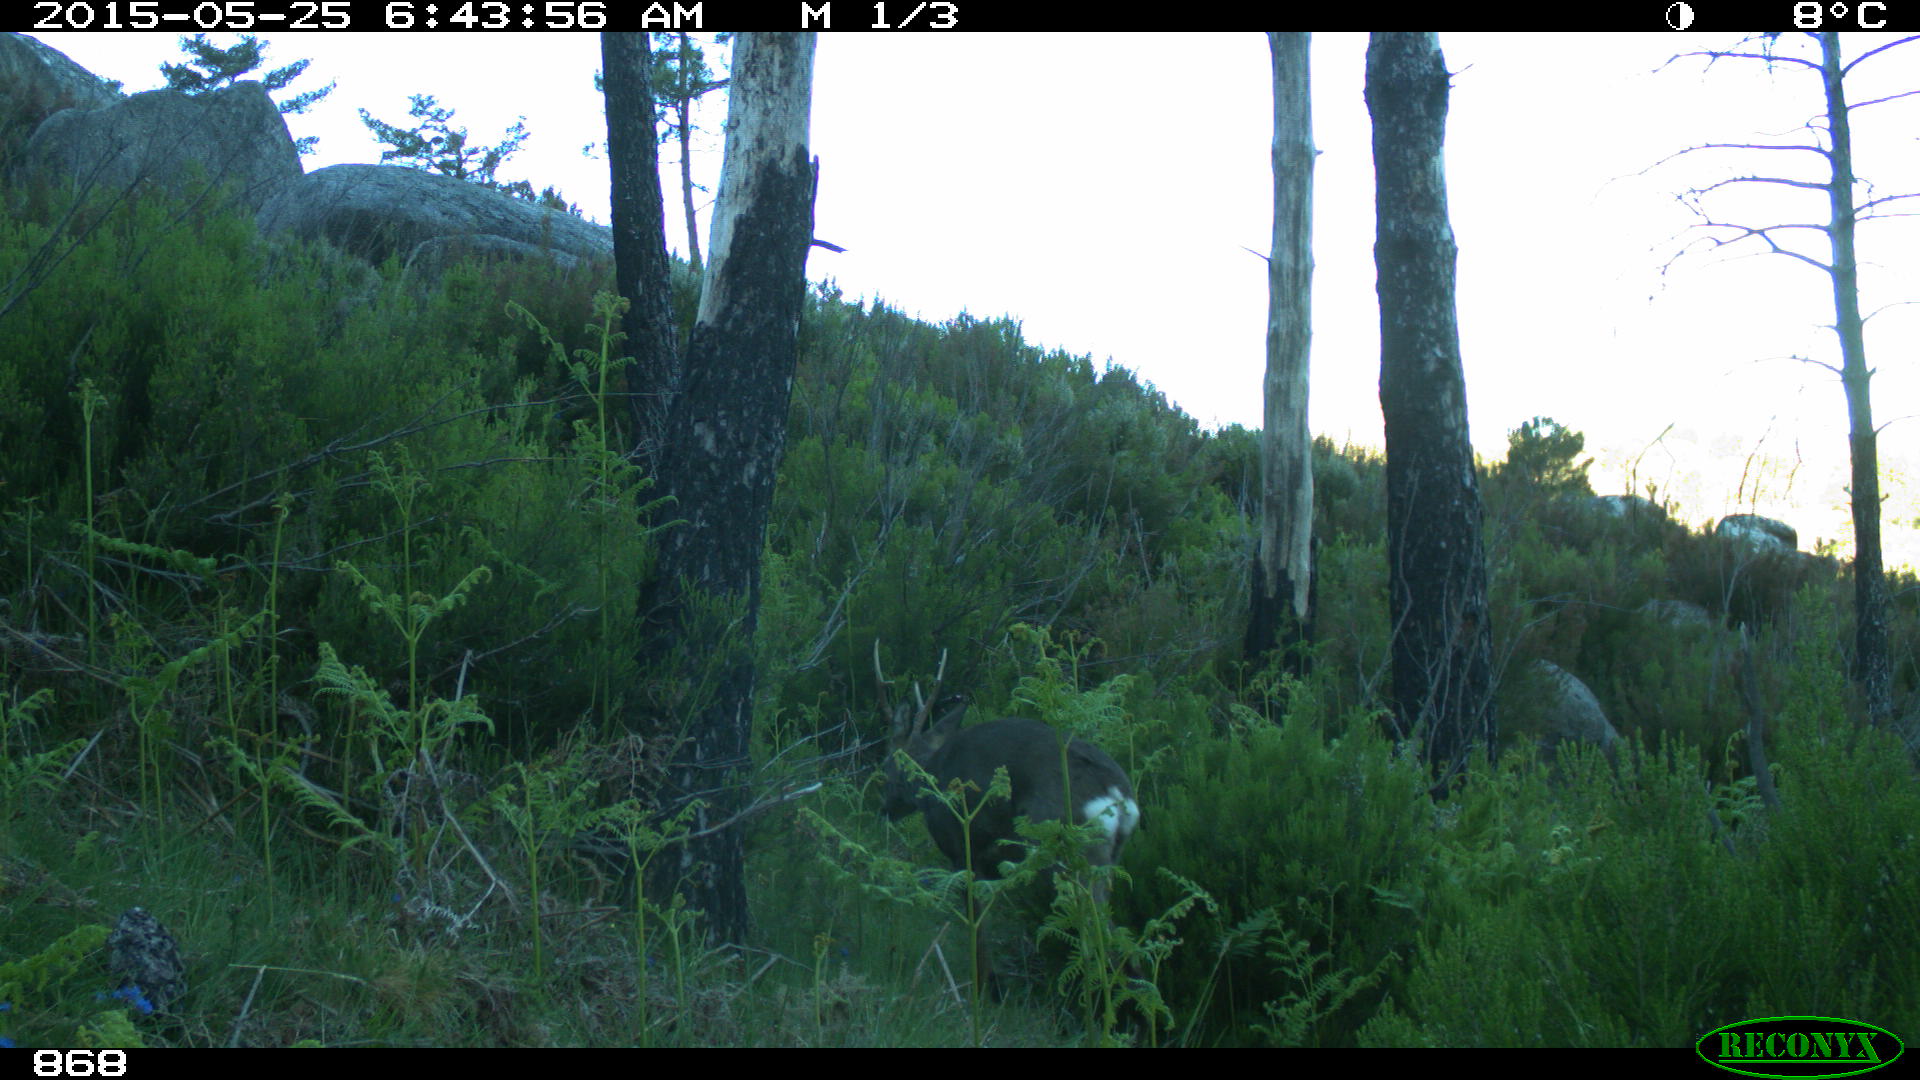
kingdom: Animalia
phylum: Chordata
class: Mammalia
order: Artiodactyla
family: Cervidae
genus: Capreolus
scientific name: Capreolus capreolus
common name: Western roe deer
